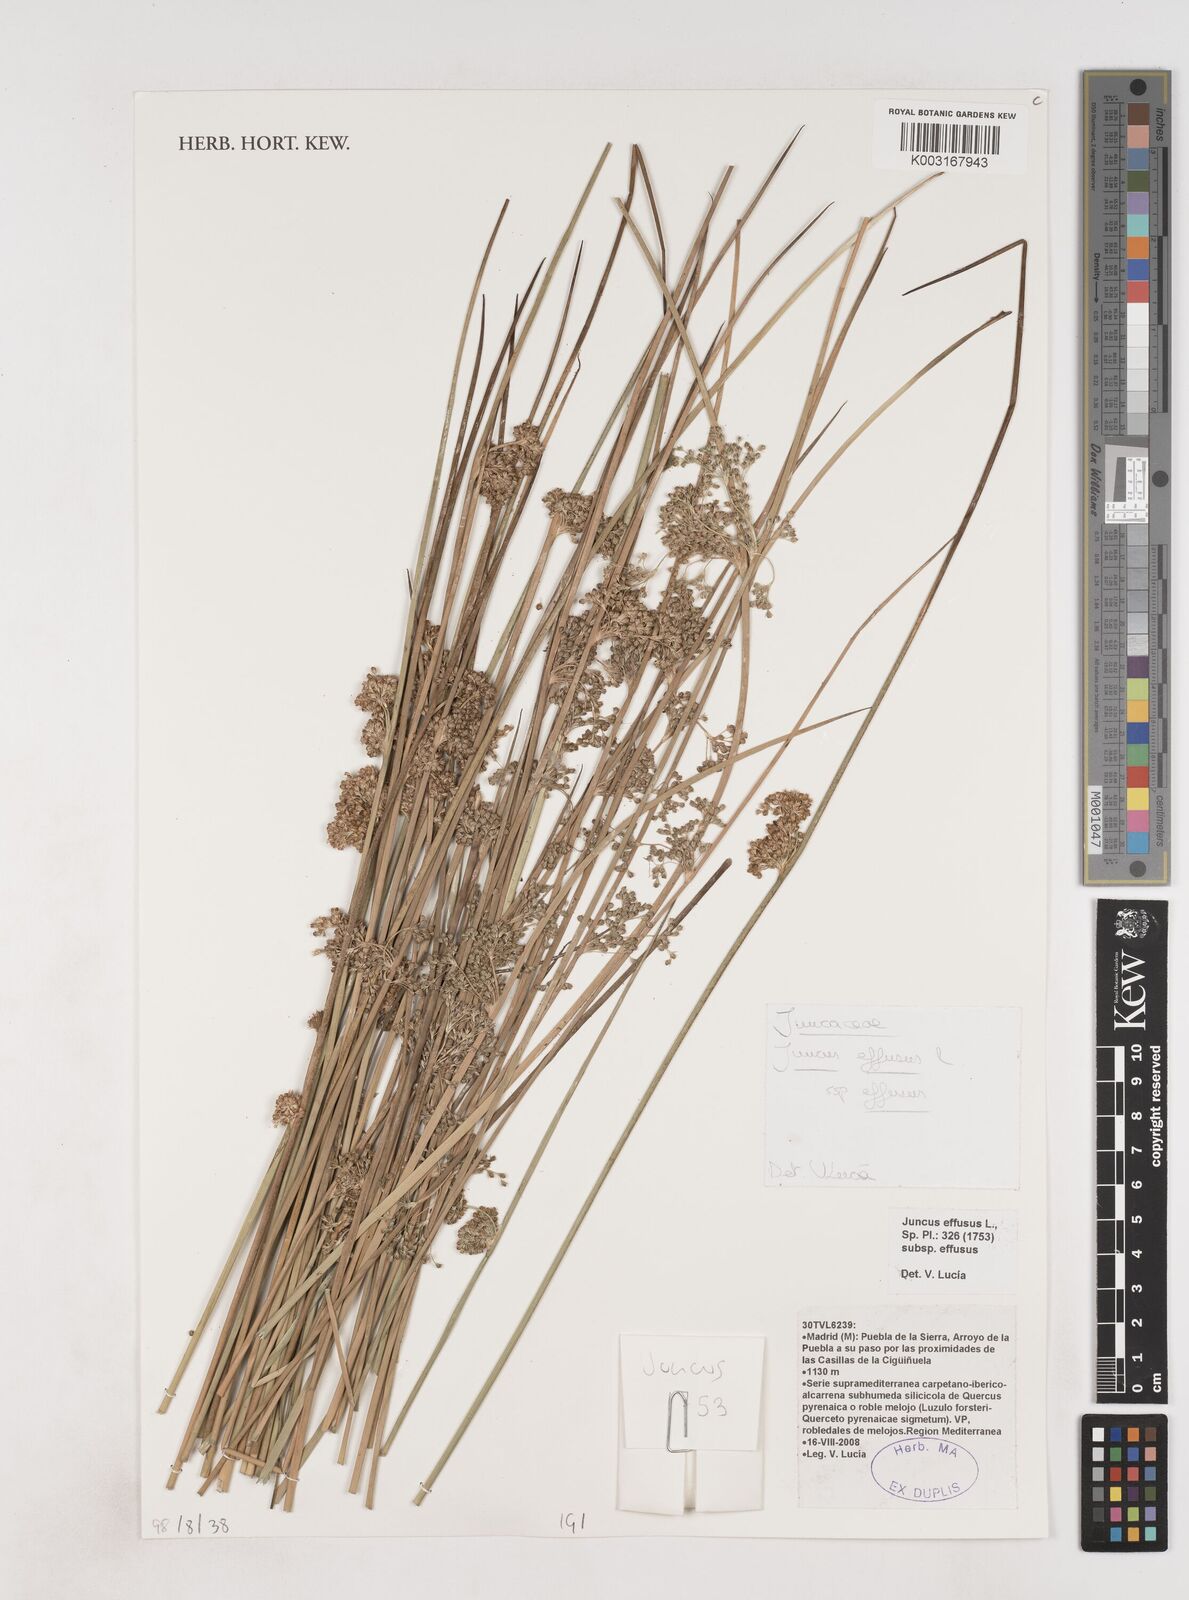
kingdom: Plantae
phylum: Tracheophyta
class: Liliopsida
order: Poales
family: Juncaceae
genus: Juncus
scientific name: Juncus effusus
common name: Soft rush
